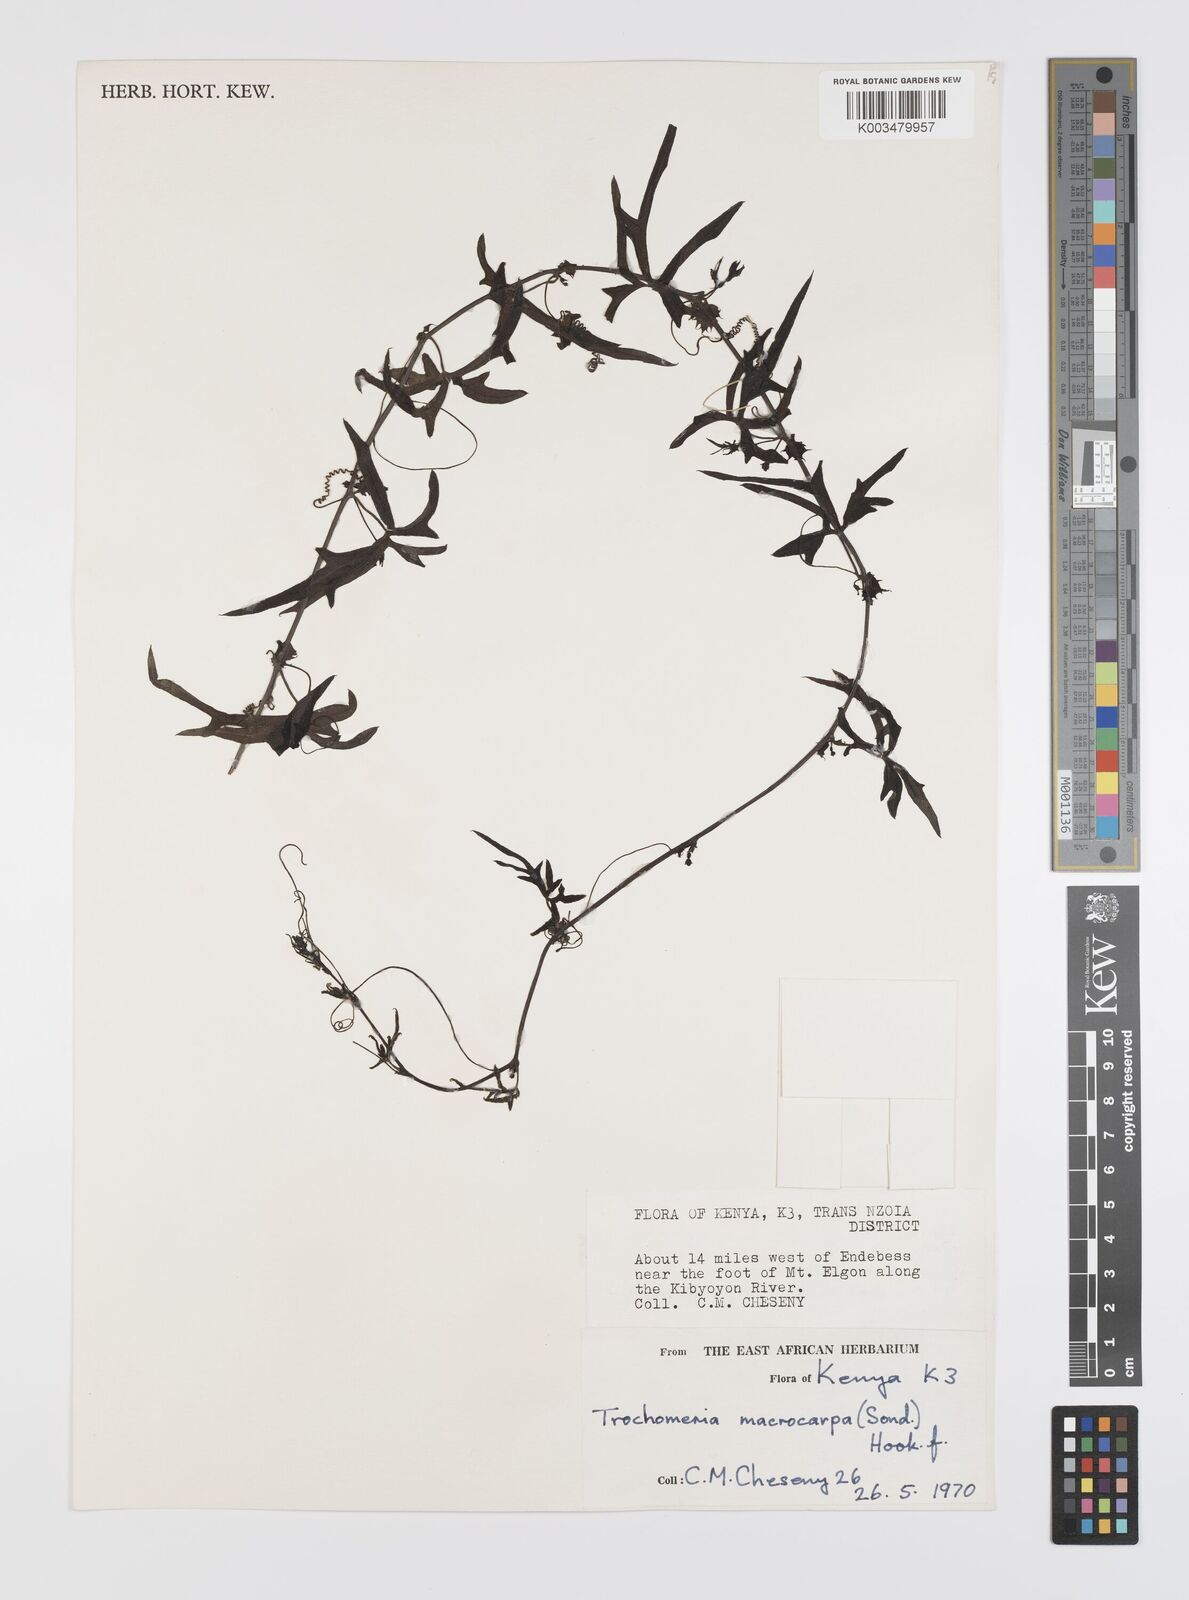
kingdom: Plantae
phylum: Tracheophyta
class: Magnoliopsida
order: Cucurbitales
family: Cucurbitaceae
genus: Trochomeria
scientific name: Trochomeria macrocarpa
